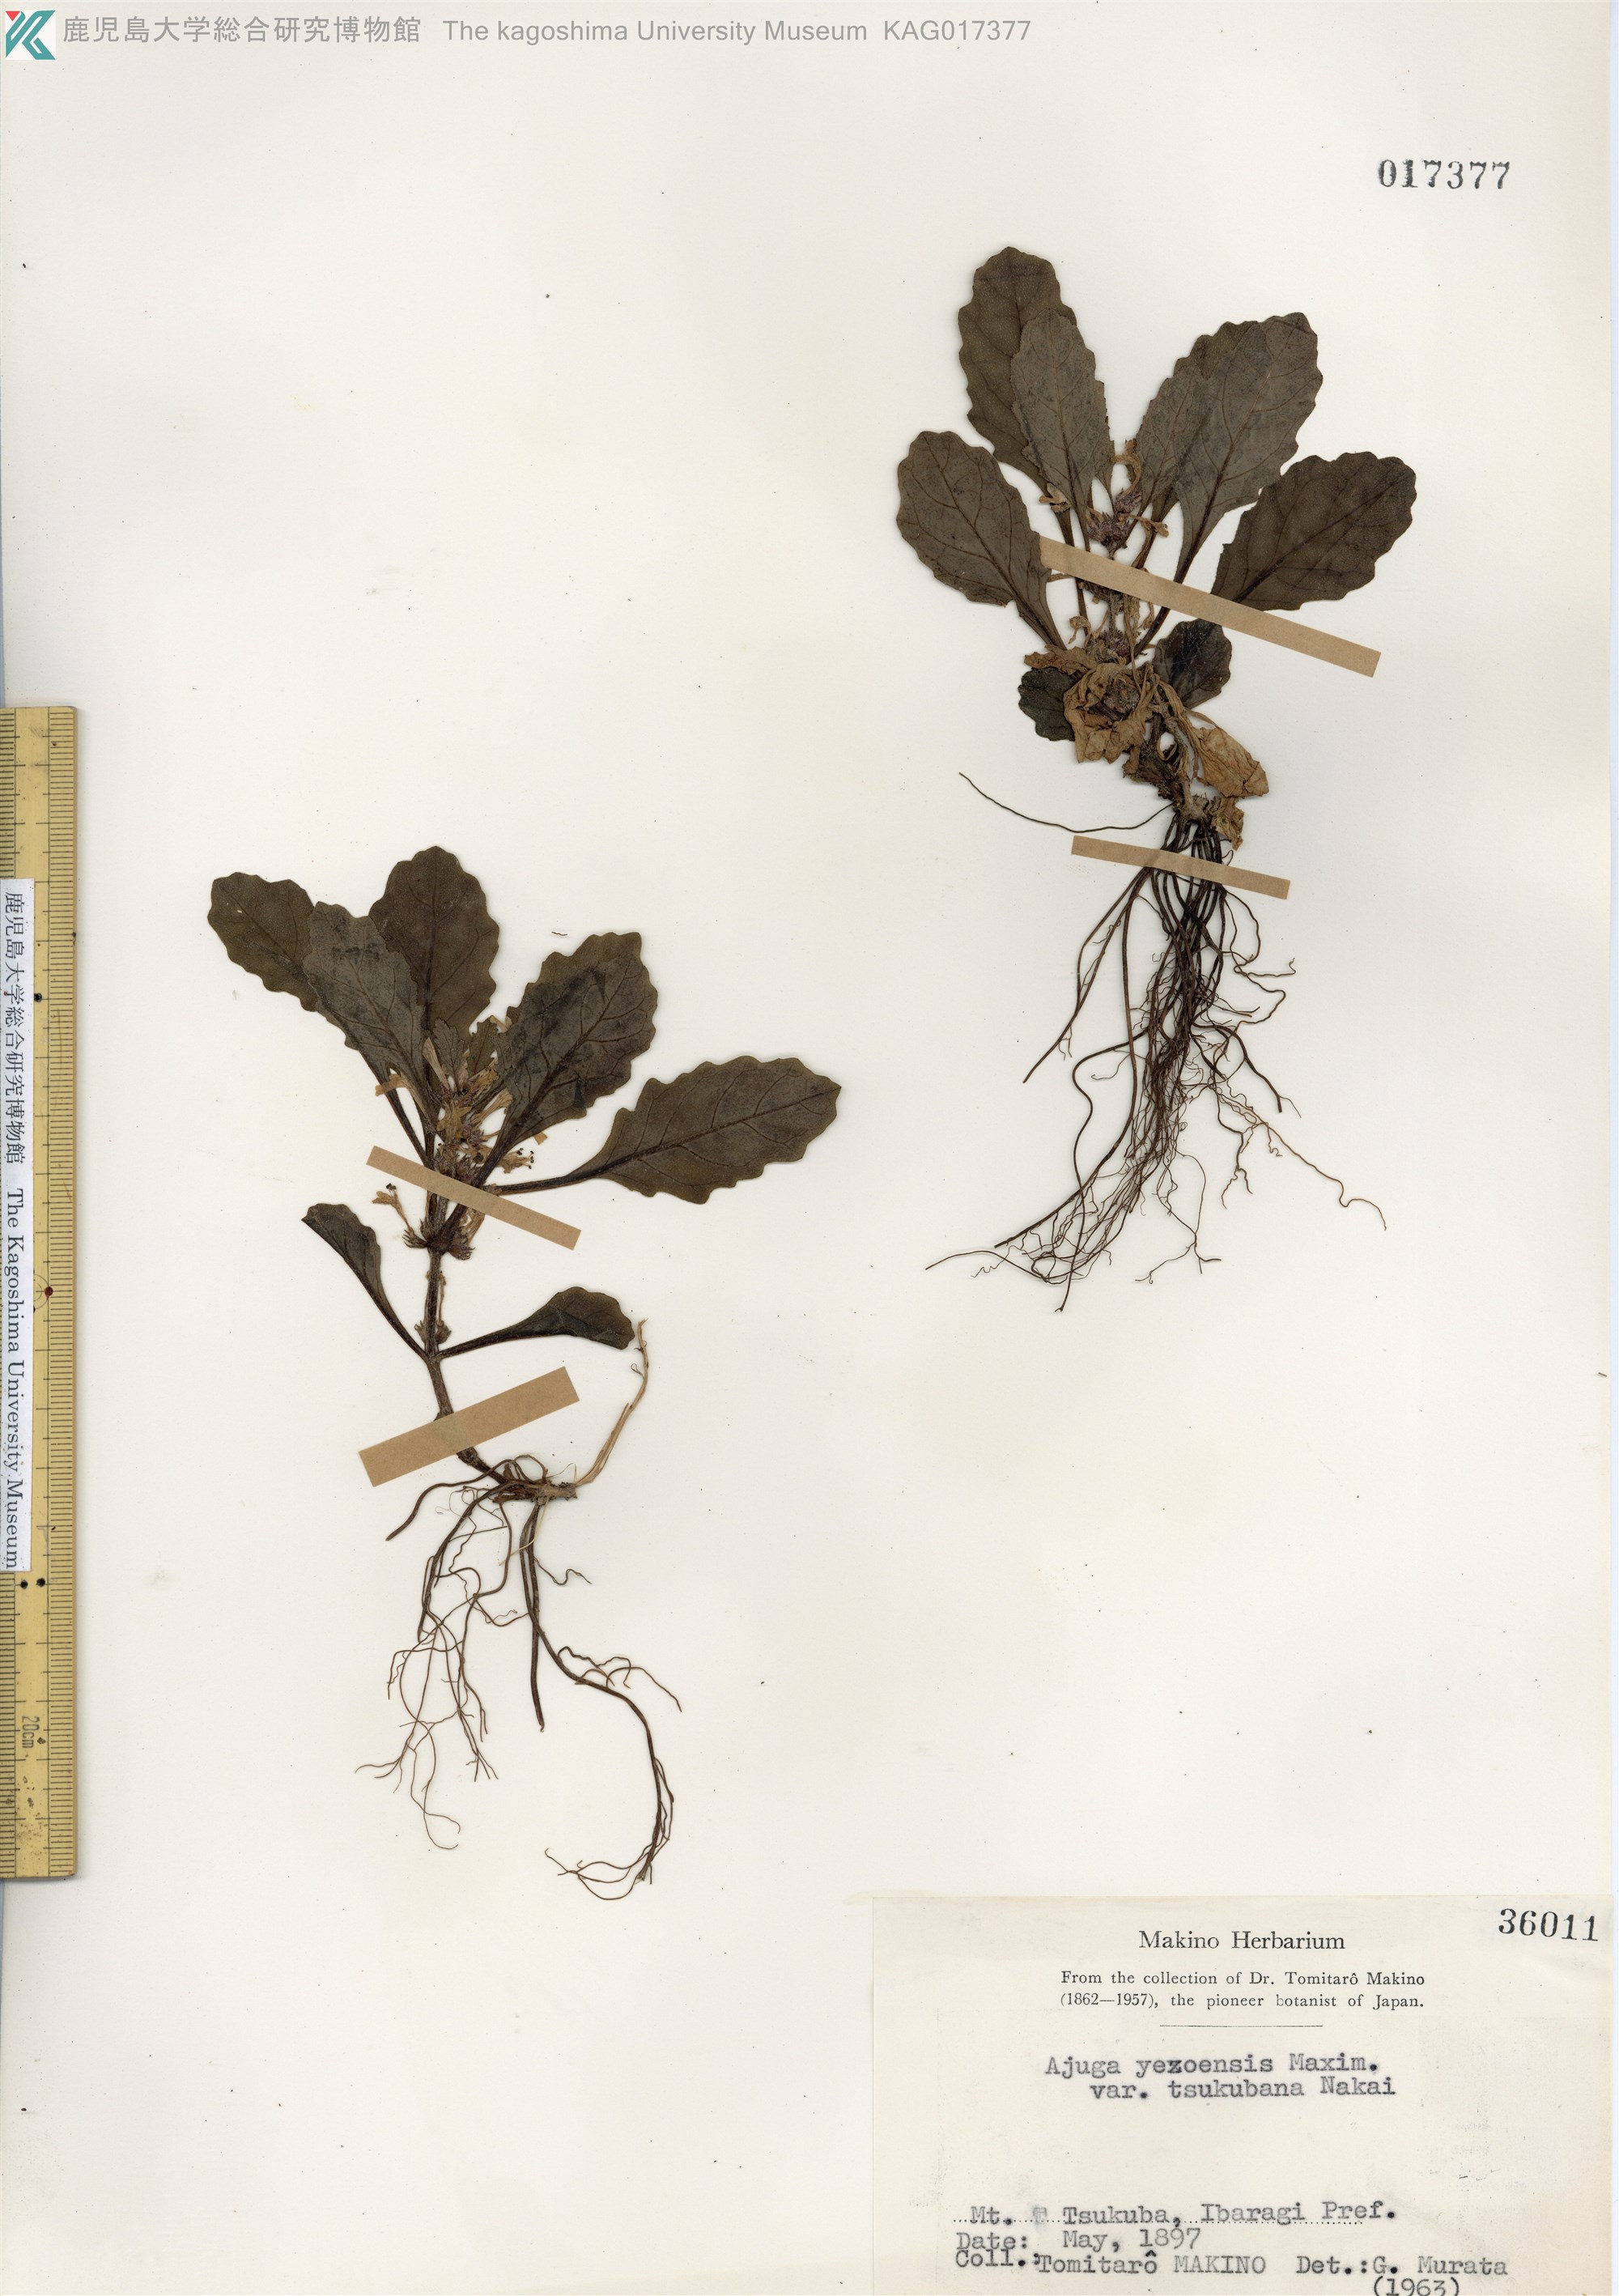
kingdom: Plantae
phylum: Tracheophyta
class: Magnoliopsida
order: Lamiales
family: Lamiaceae
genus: Ajuga
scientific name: Ajuga yesoensis
